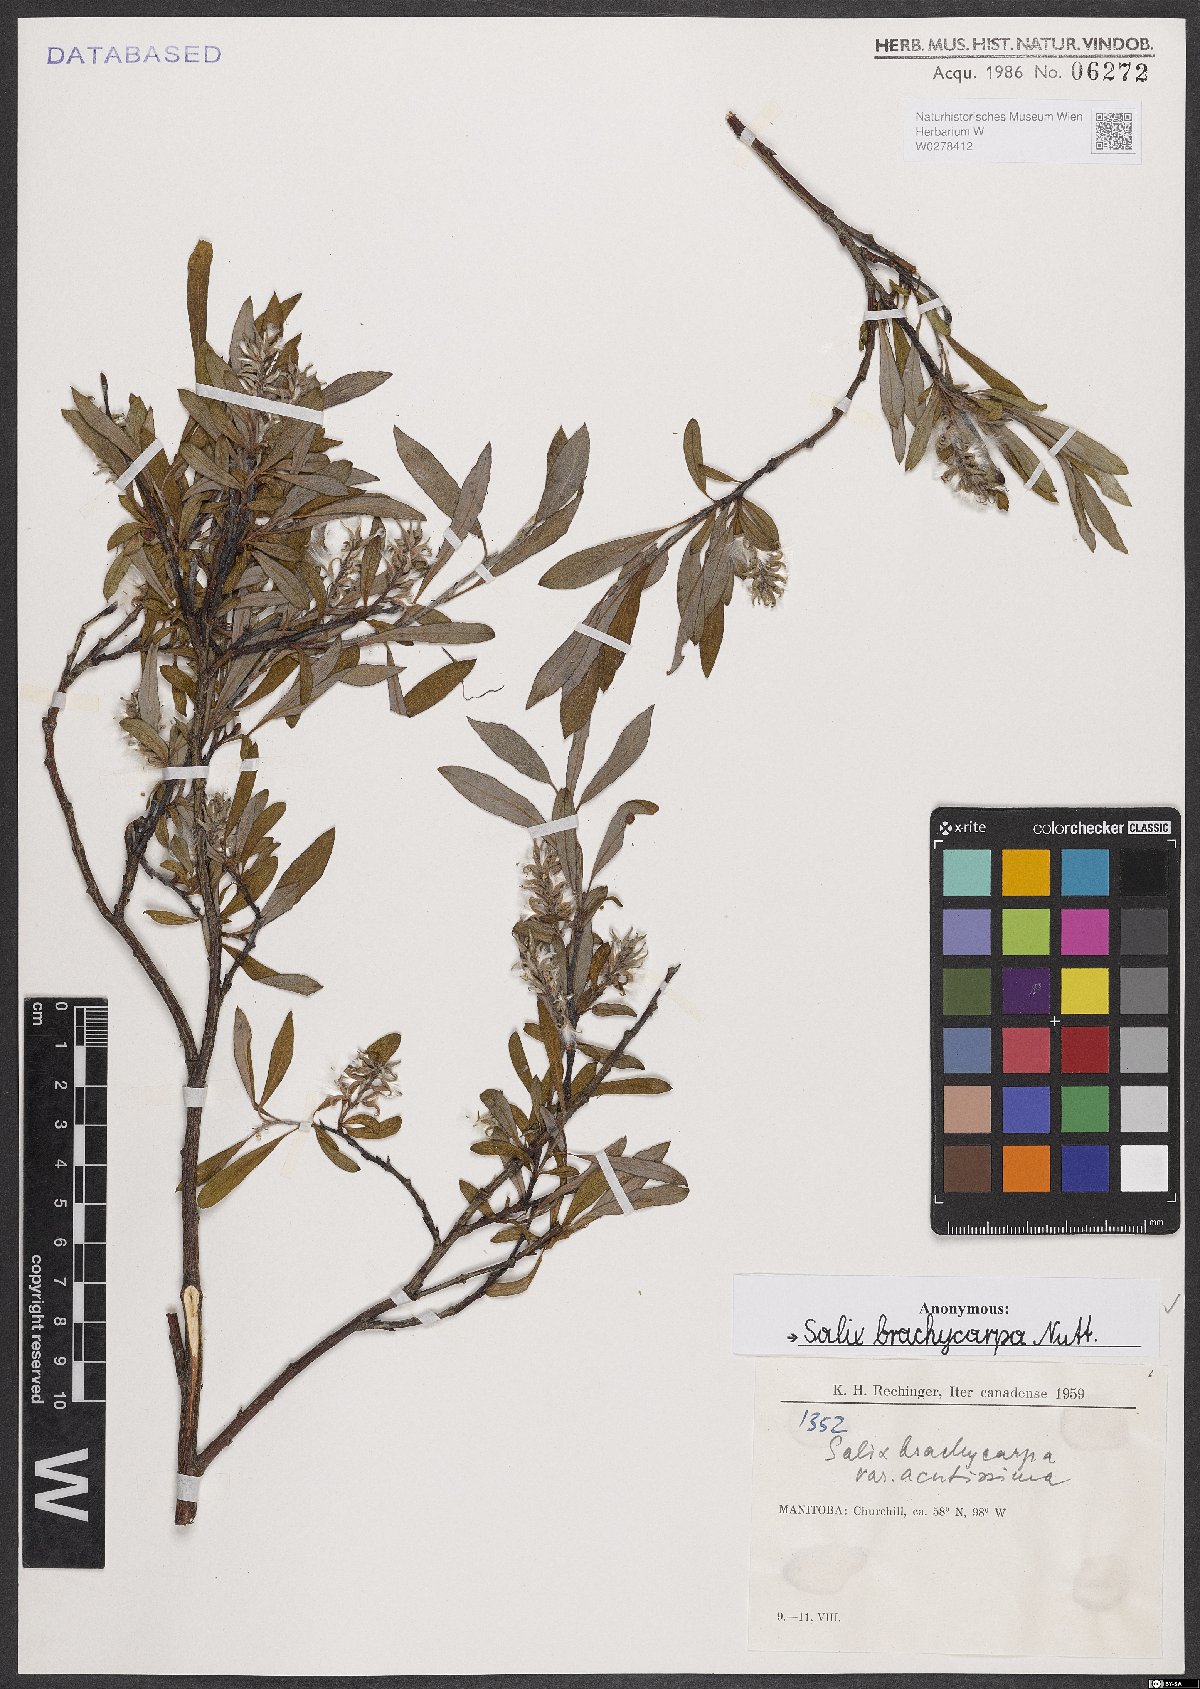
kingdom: Plantae
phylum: Tracheophyta
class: Magnoliopsida
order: Malpighiales
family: Salicaceae
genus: Salix
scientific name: Salix brachycarpa
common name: Barren-ground willow
